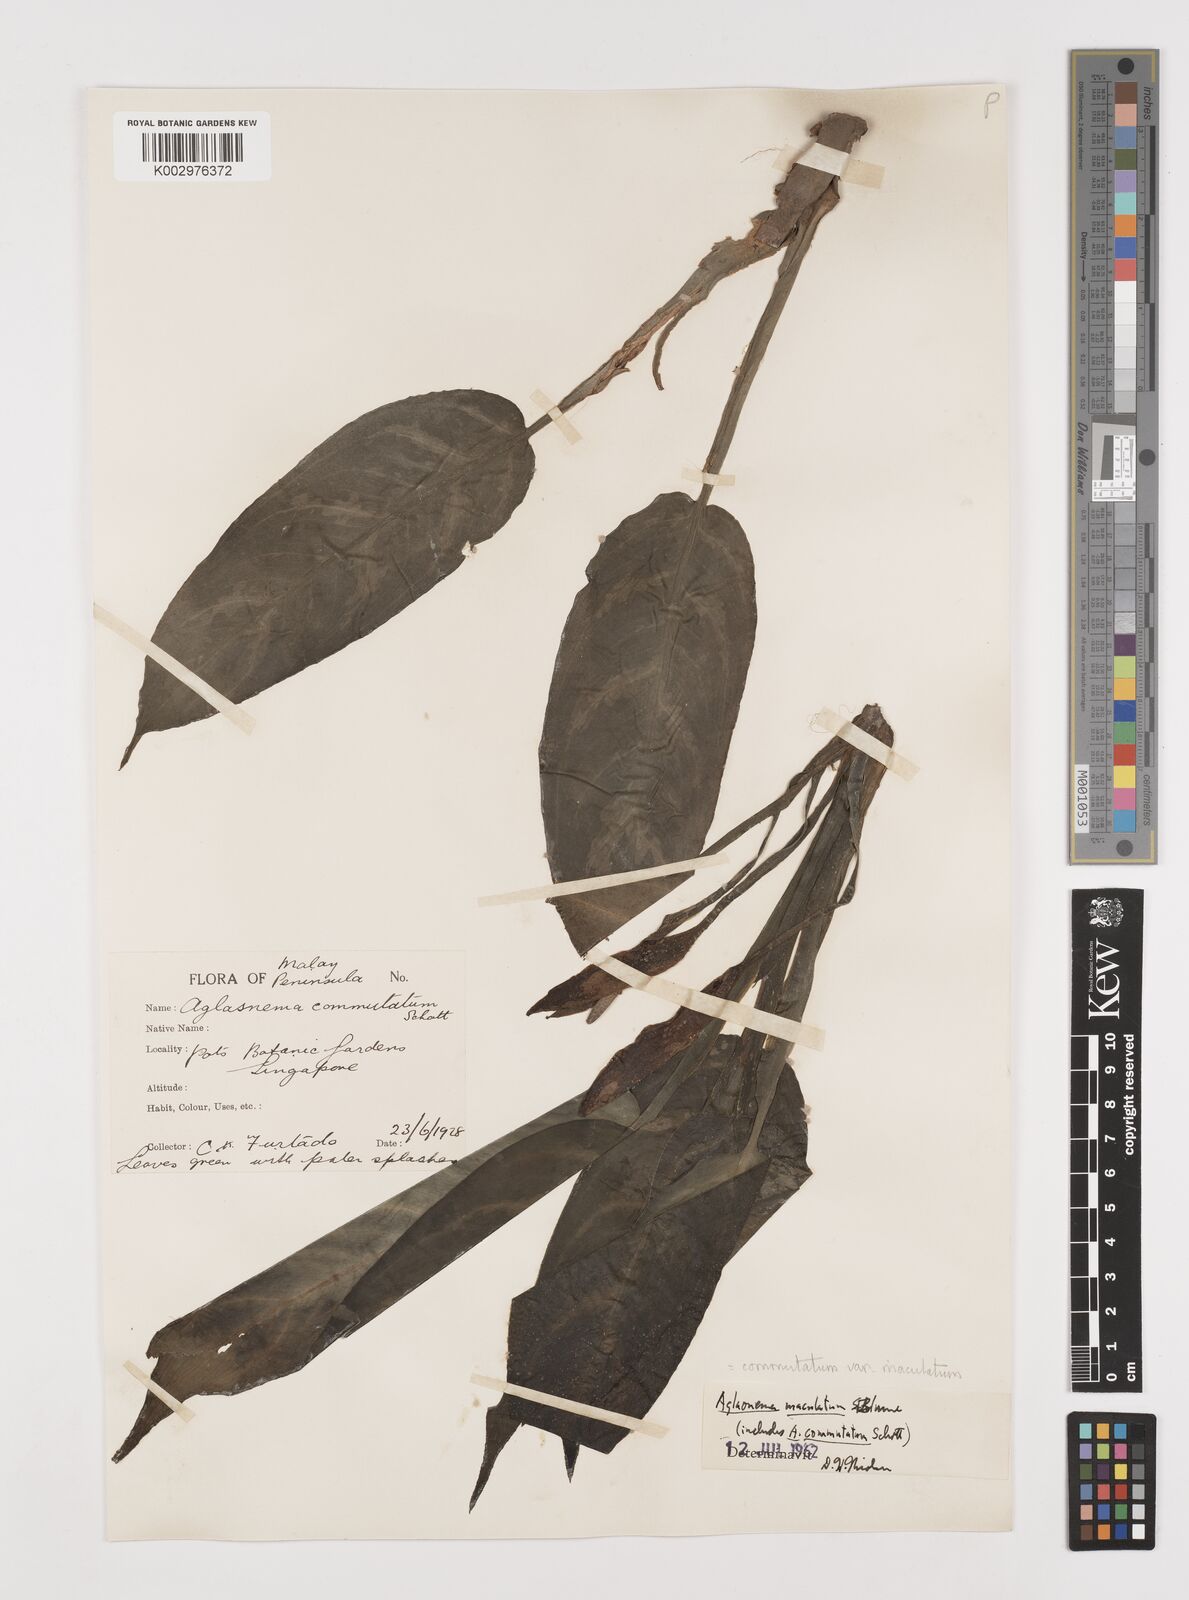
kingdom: Plantae
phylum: Tracheophyta
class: Liliopsida
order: Alismatales
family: Araceae
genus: Aglaonema
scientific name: Aglaonema commutatum
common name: Philippine evergreen
